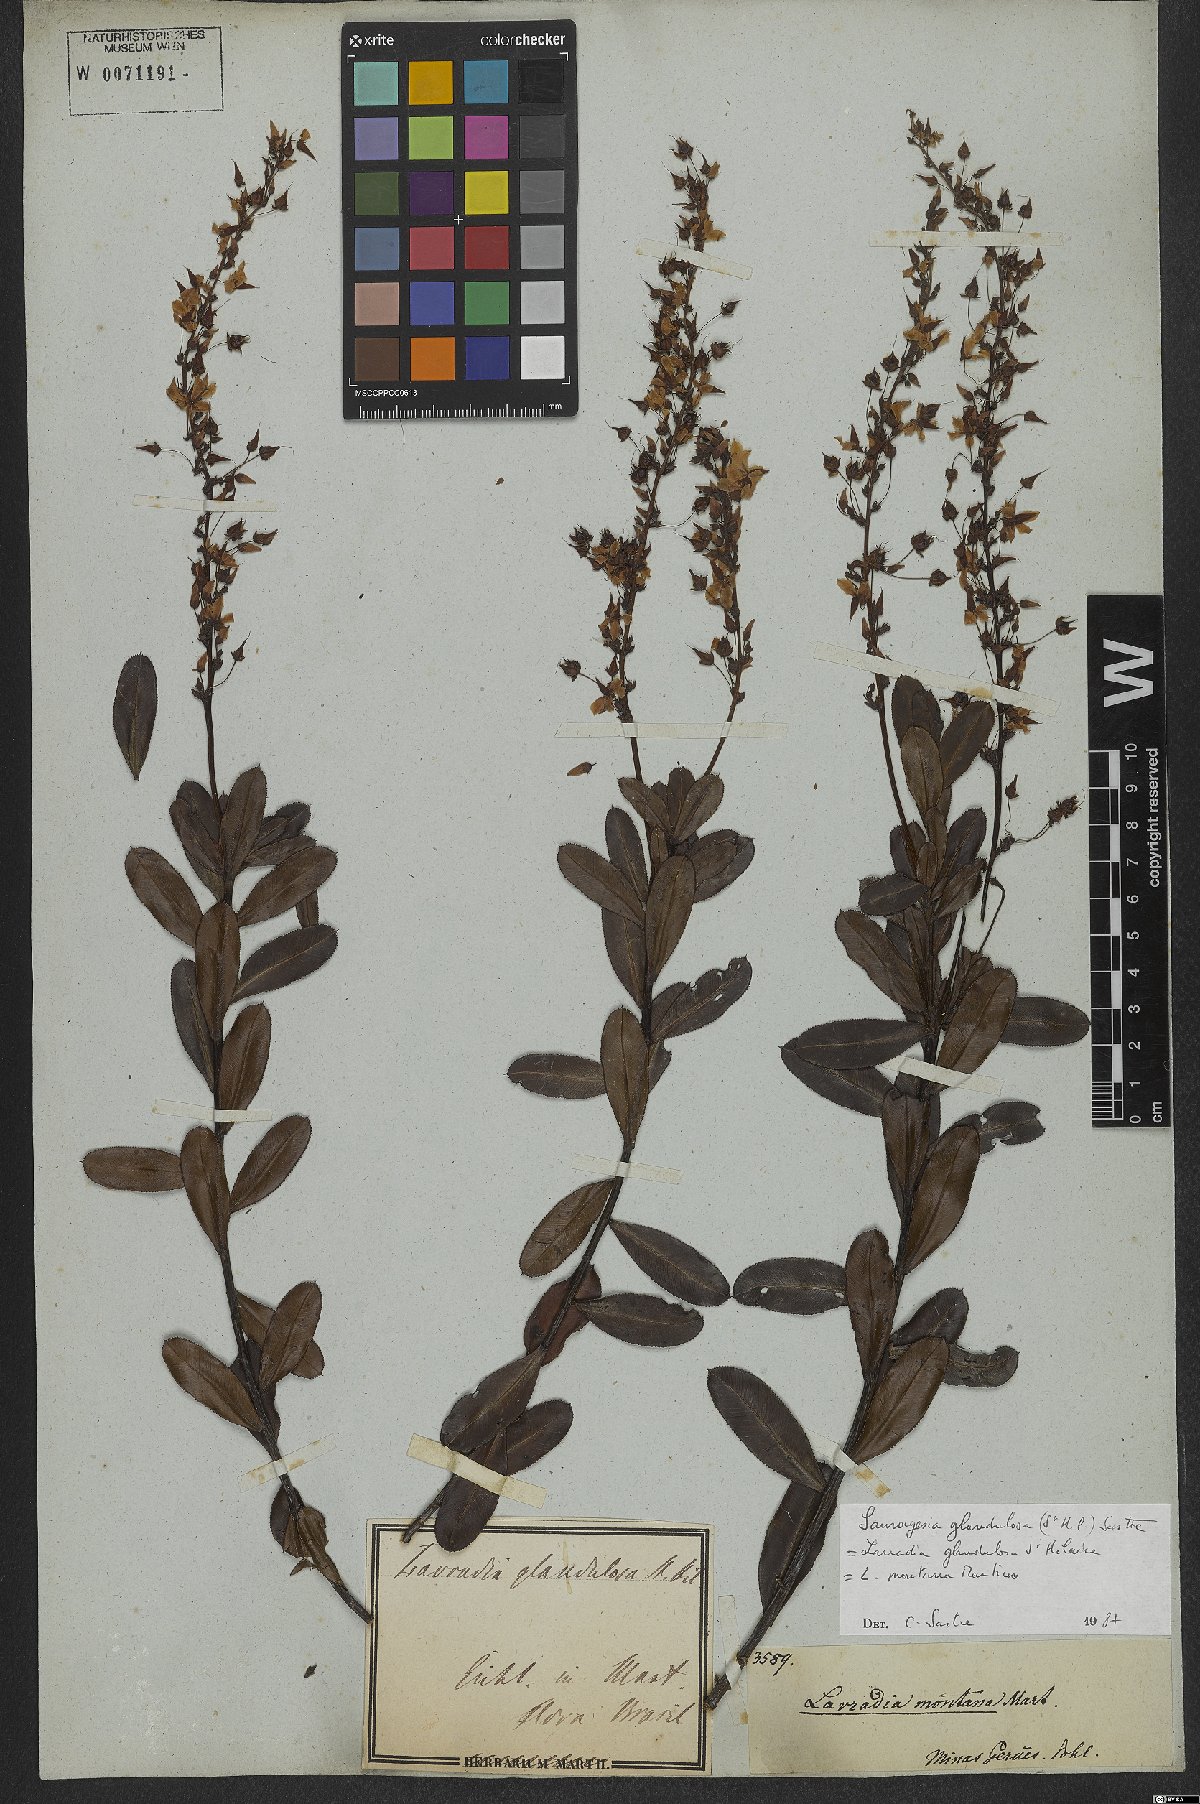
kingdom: Plantae
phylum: Tracheophyta
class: Magnoliopsida
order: Malpighiales
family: Ochnaceae
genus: Sauvagesia
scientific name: Sauvagesia glandulosa
